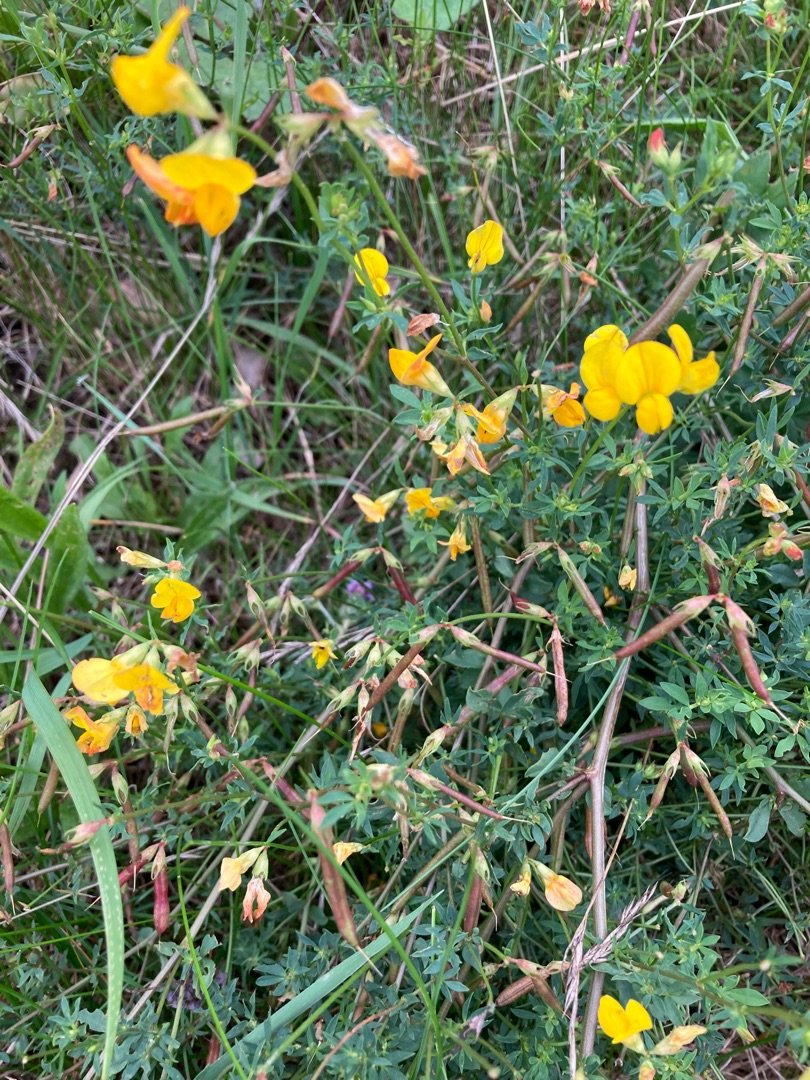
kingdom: Plantae
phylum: Tracheophyta
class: Magnoliopsida
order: Fabales
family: Fabaceae
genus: Lotus
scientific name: Lotus corniculatus
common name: Almindelig kællingetand
